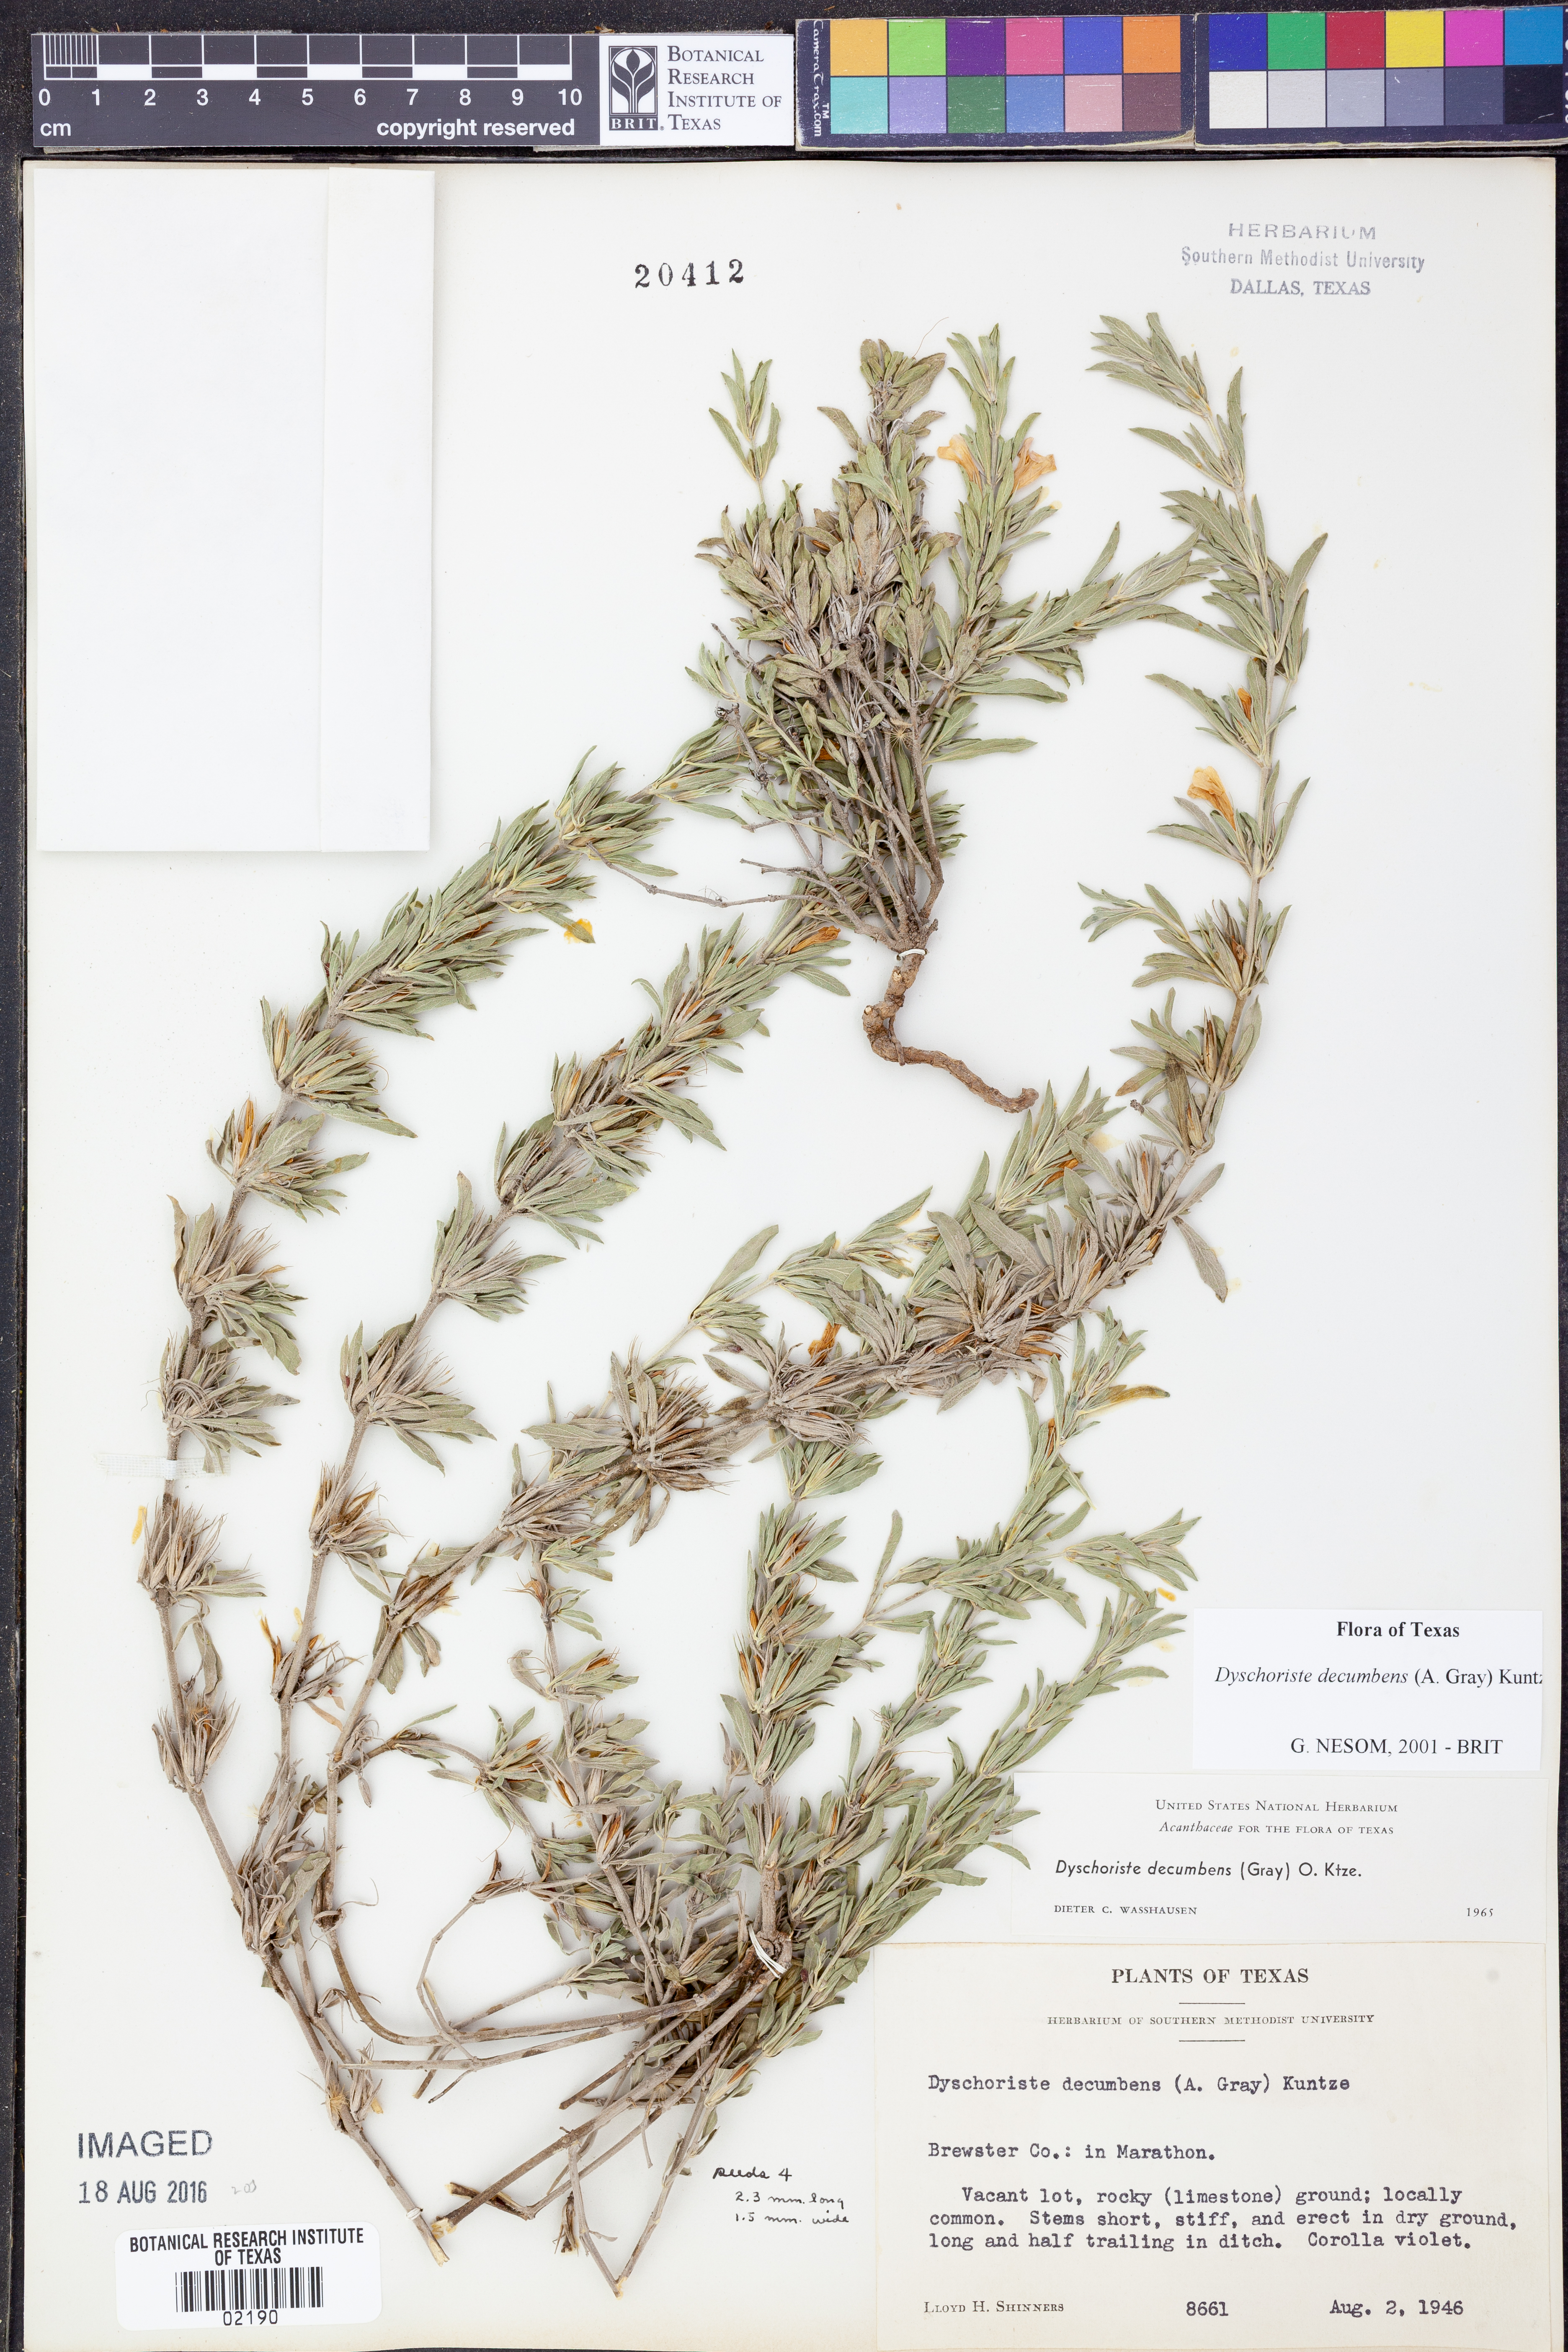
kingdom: Plantae
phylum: Tracheophyta
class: Magnoliopsida
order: Lamiales
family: Acanthaceae
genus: Dyschoriste
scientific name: Dyschoriste decumbens
